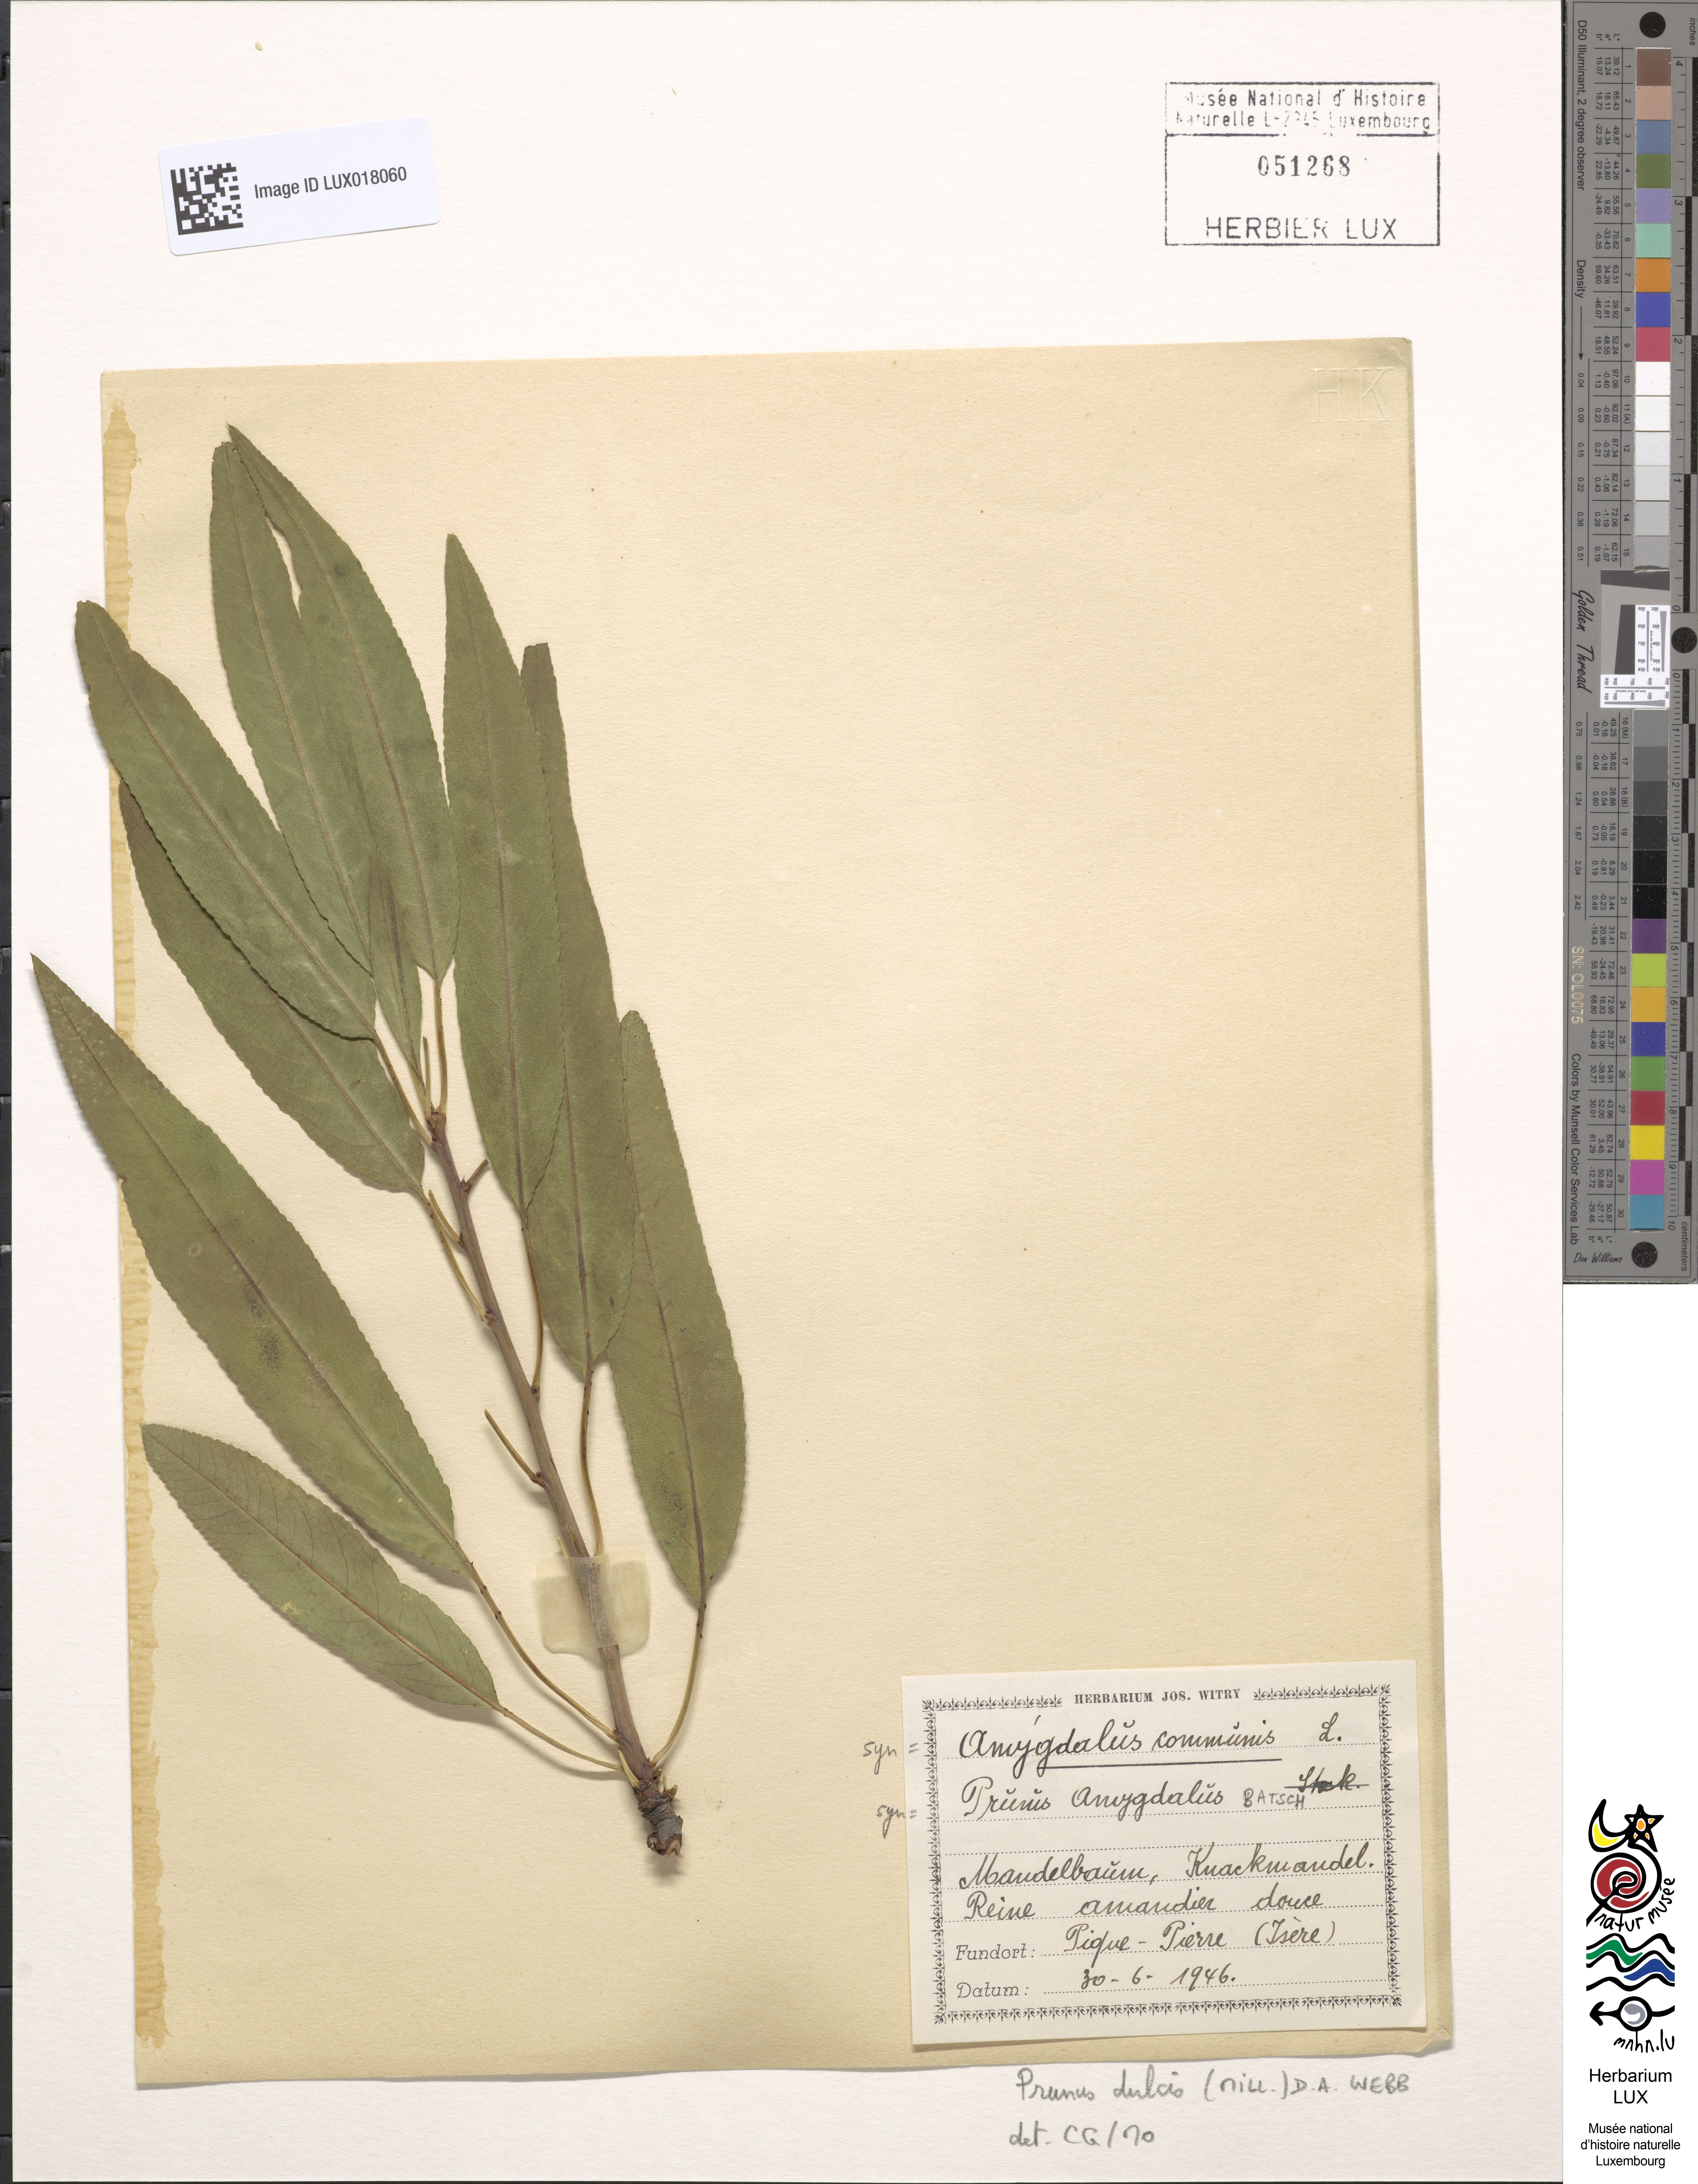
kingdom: Plantae
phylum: Tracheophyta
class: Magnoliopsida
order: Rosales
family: Rosaceae
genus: Prunus
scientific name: Prunus amygdalus
